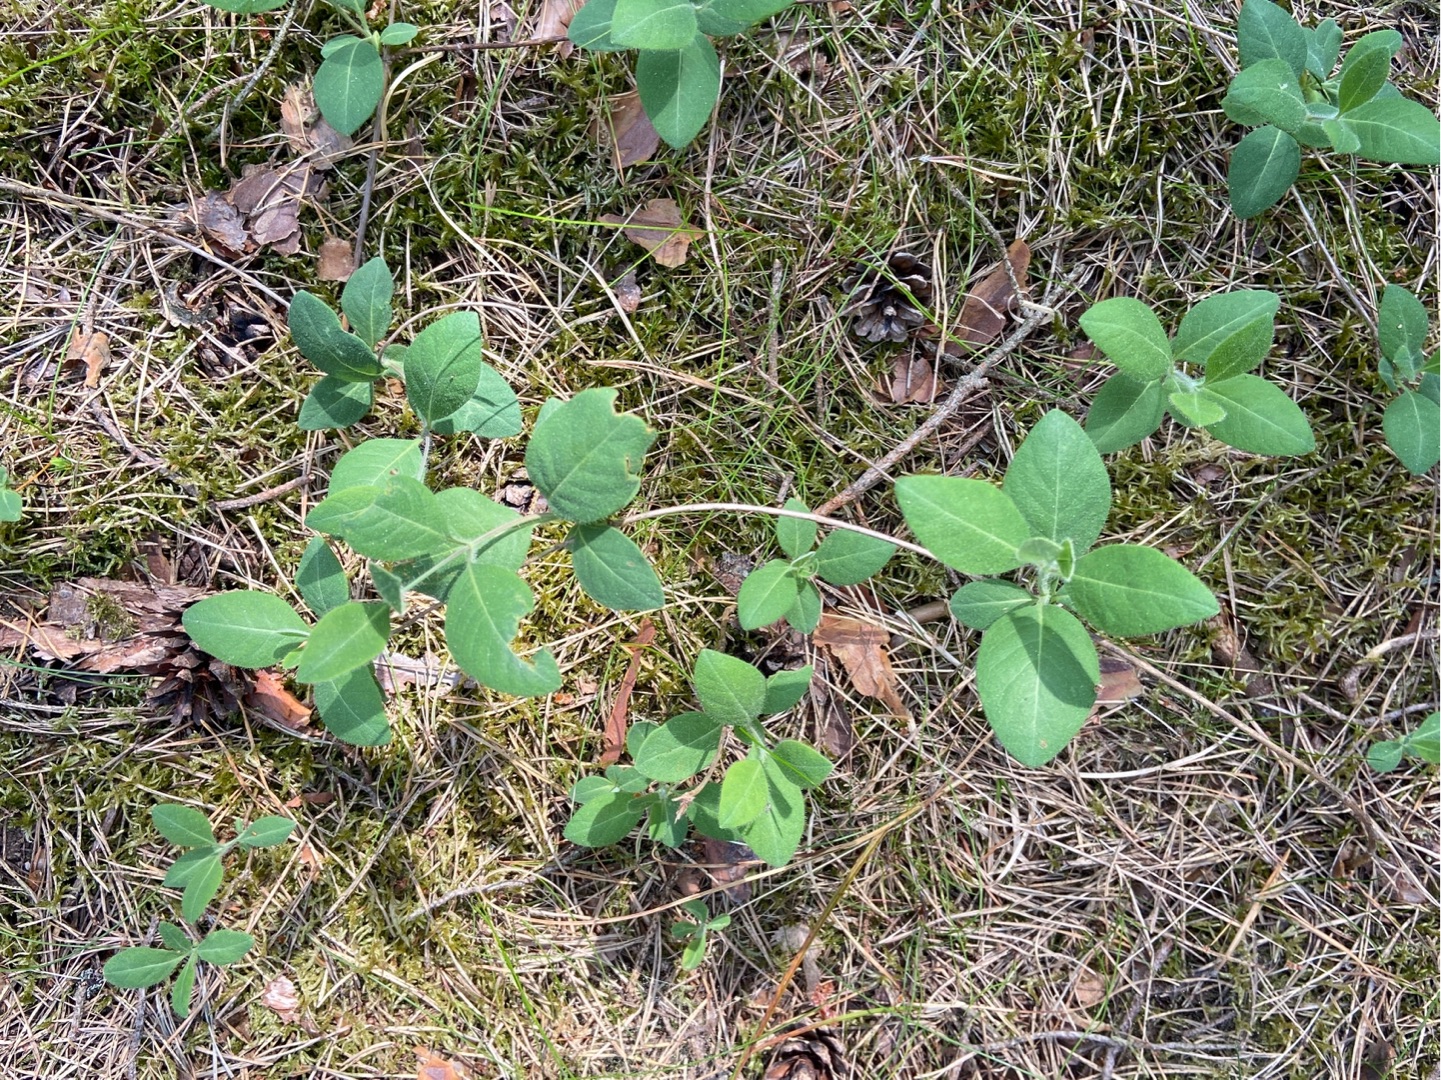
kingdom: Plantae
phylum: Tracheophyta
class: Magnoliopsida
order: Dipsacales
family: Caprifoliaceae
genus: Lonicera
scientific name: Lonicera periclymenum
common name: Almindelig gedeblad
